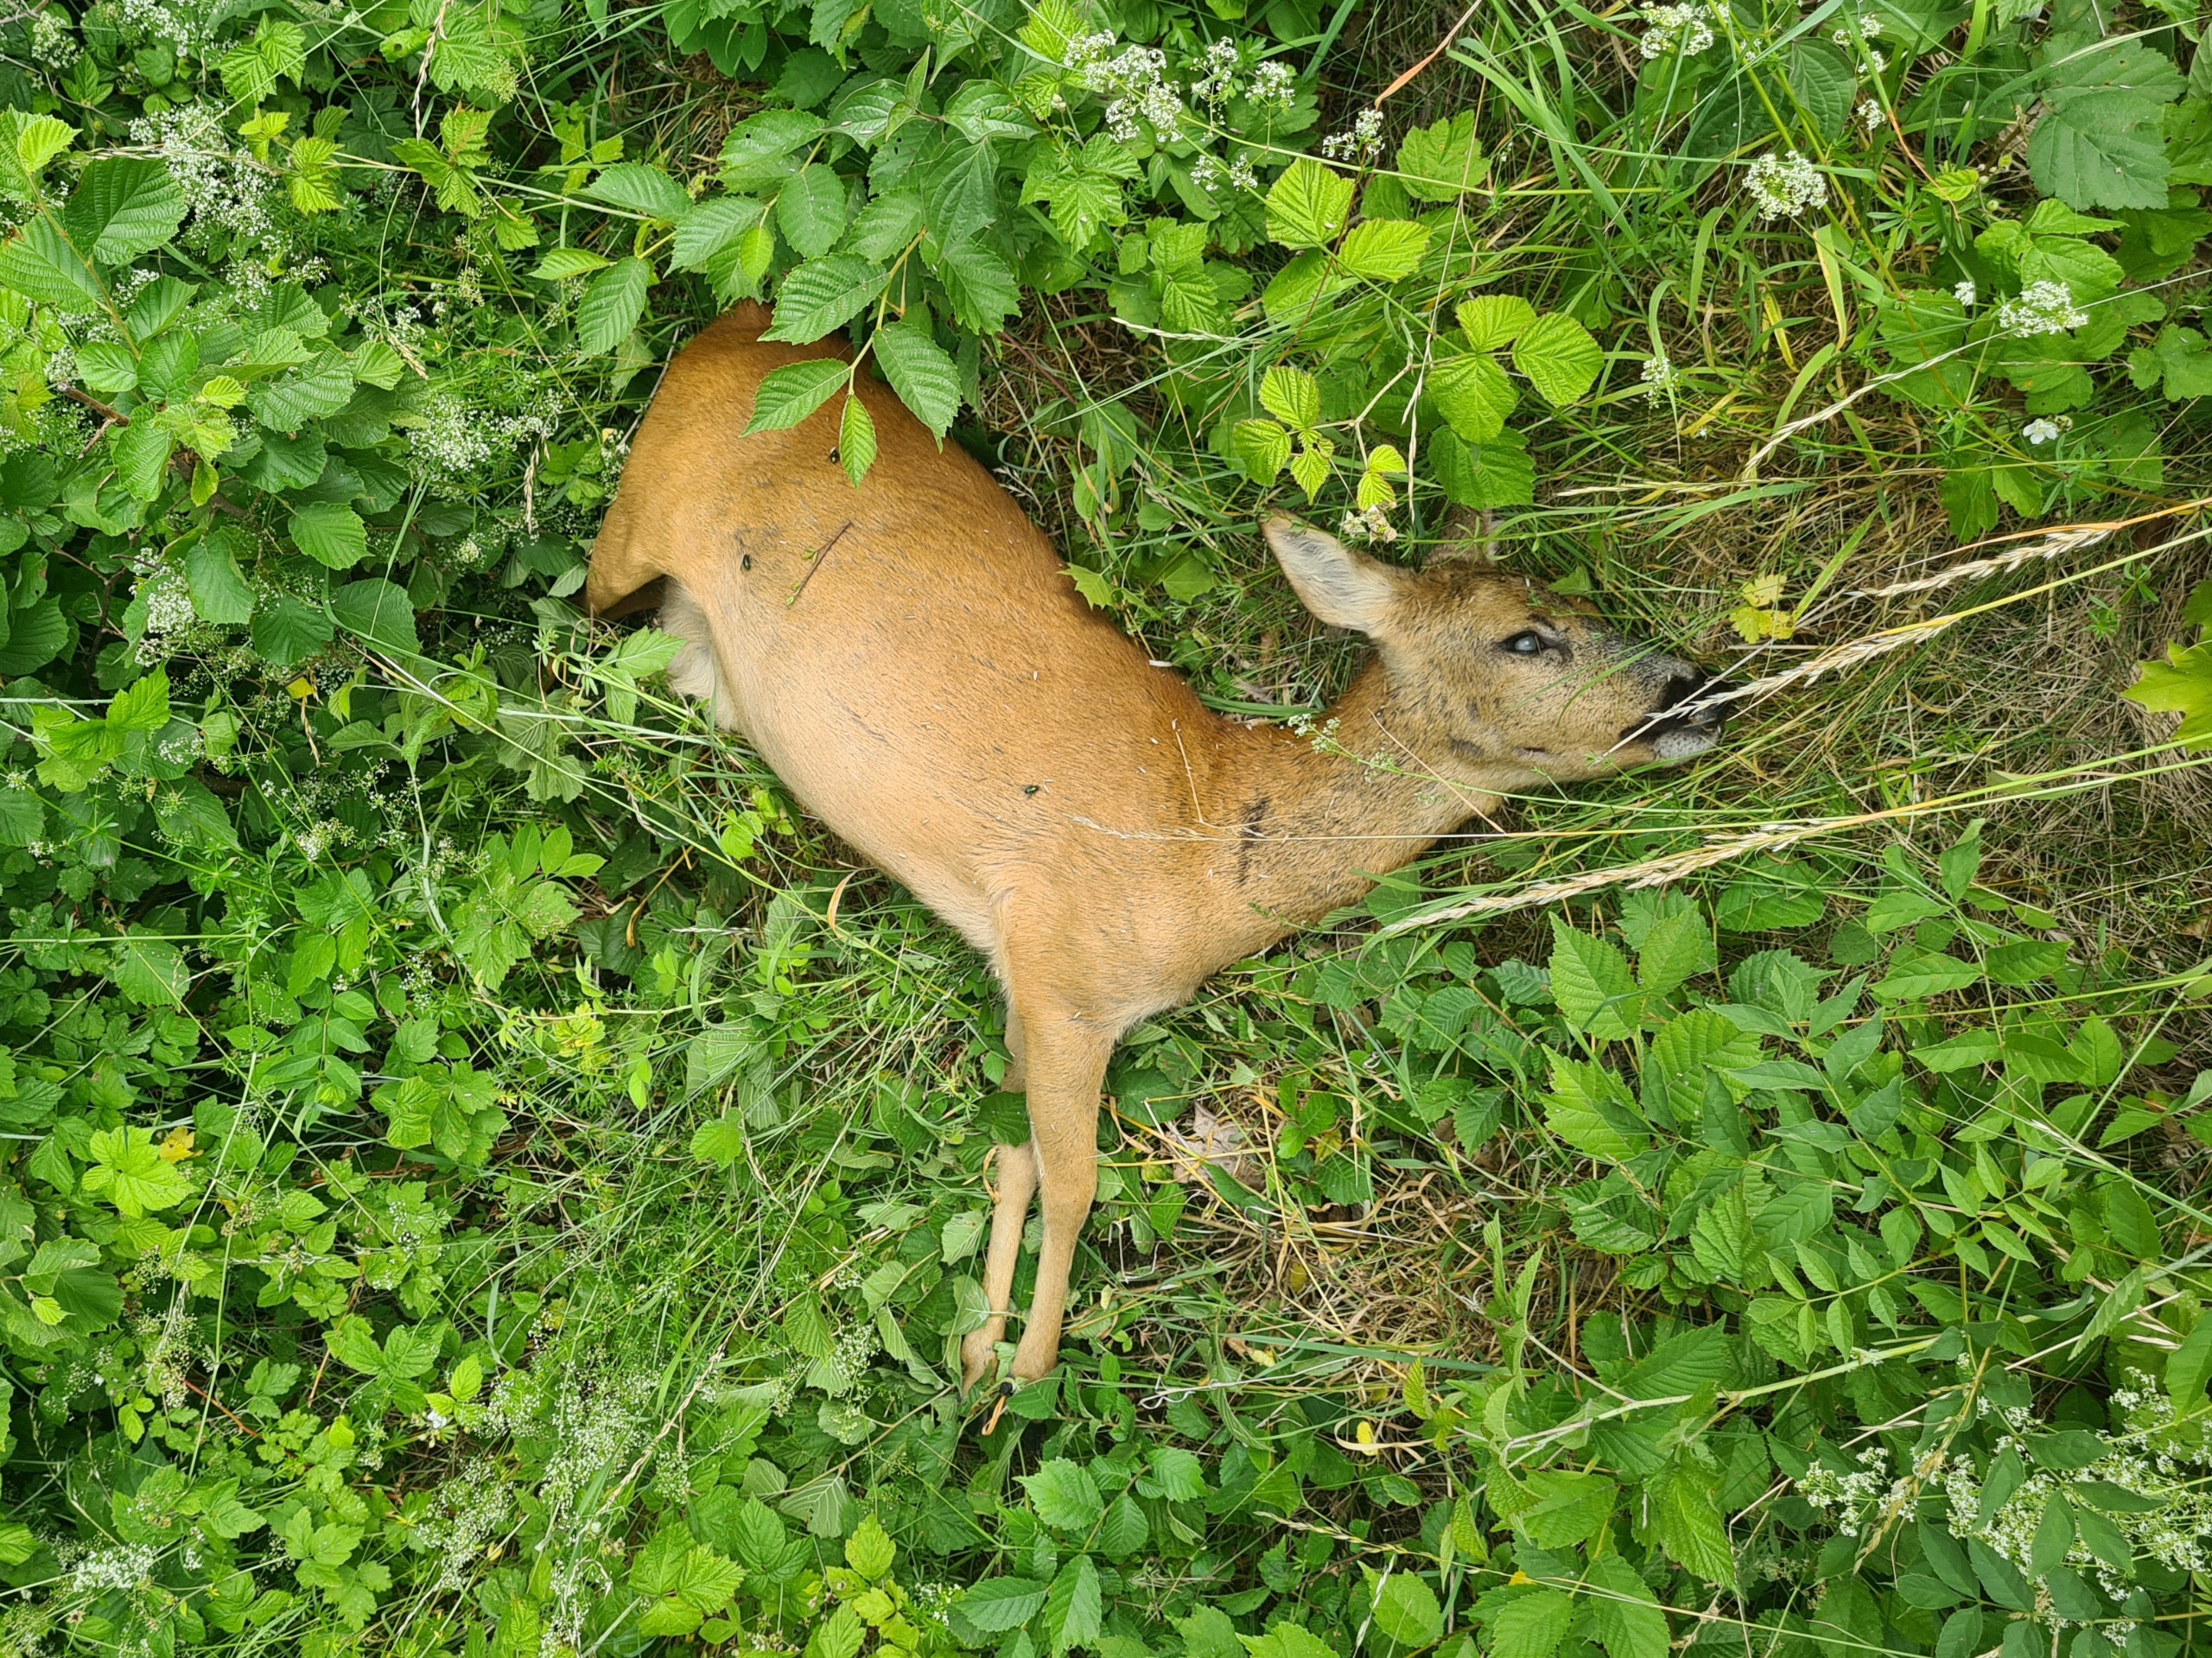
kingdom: Animalia
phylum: Chordata
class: Mammalia
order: Artiodactyla
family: Cervidae
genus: Capreolus
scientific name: Capreolus capreolus
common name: Rådyr
